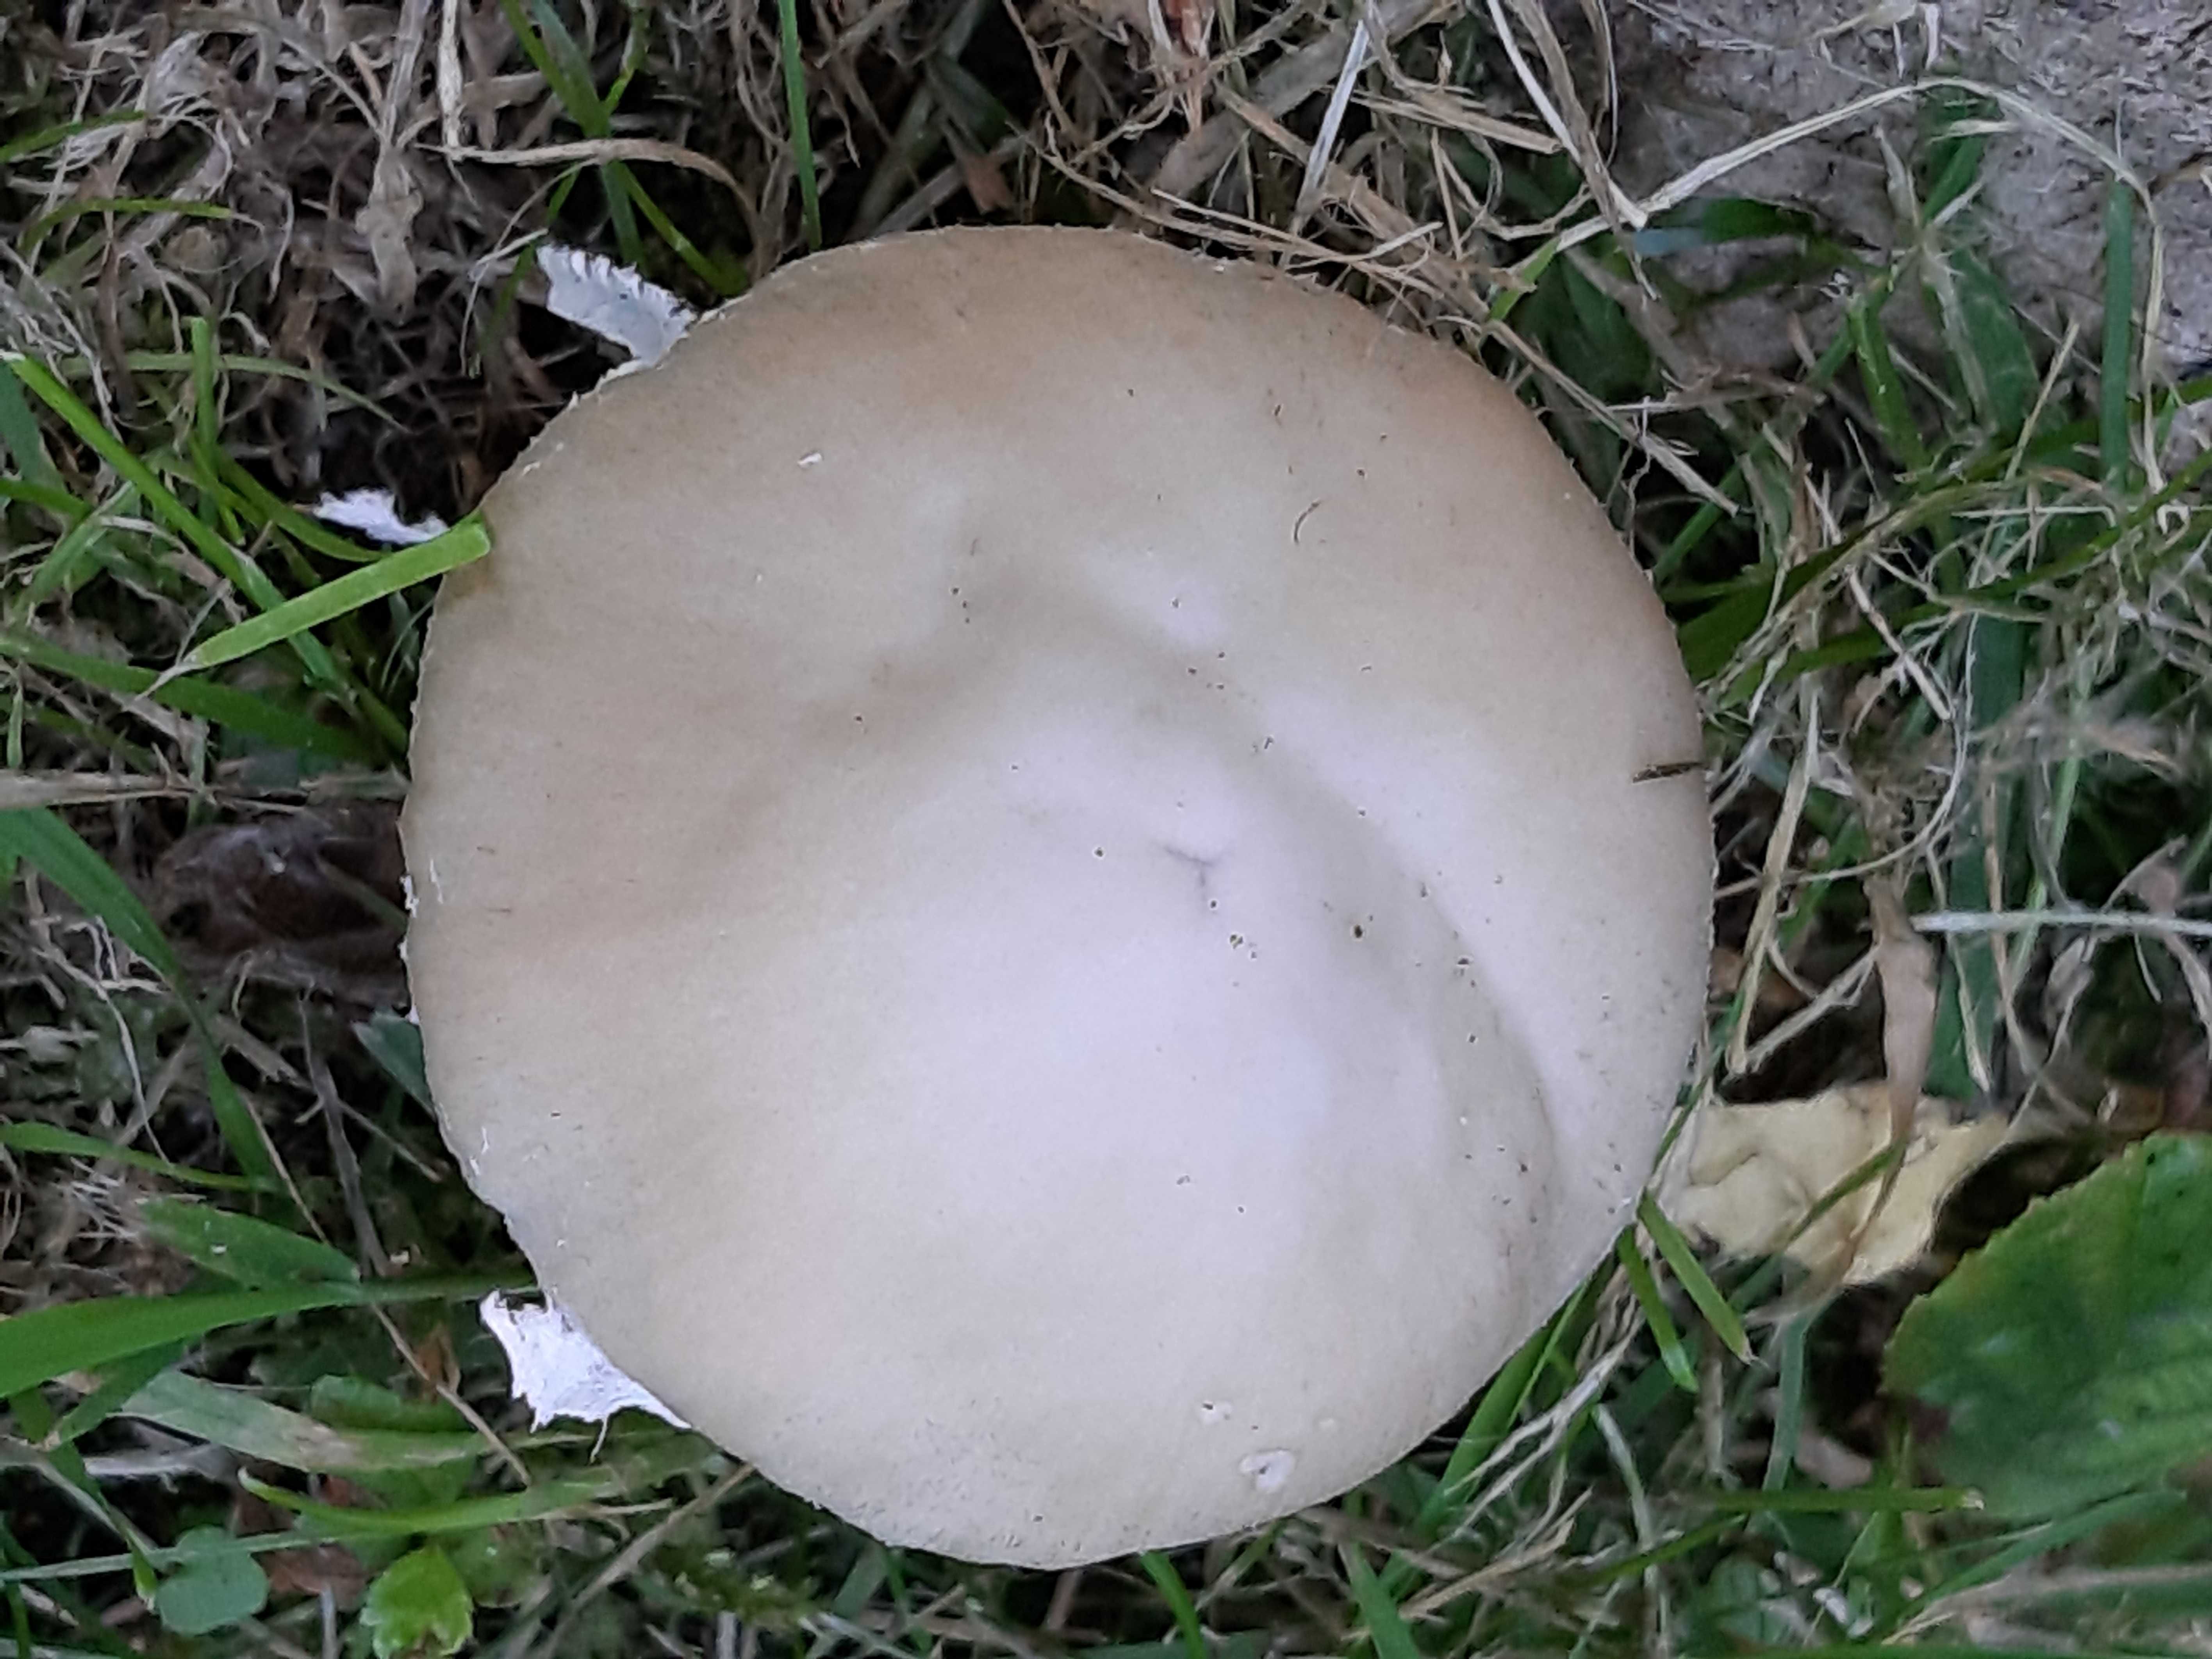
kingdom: Fungi
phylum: Basidiomycota
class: Agaricomycetes
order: Agaricales
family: Psathyrellaceae
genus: Candolleomyces
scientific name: Candolleomyces candolleanus
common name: Candolles mørkhat
